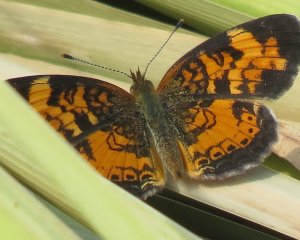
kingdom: Animalia
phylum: Arthropoda
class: Insecta
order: Lepidoptera
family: Nymphalidae
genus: Phyciodes
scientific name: Phyciodes tharos
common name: Northern Crescent
